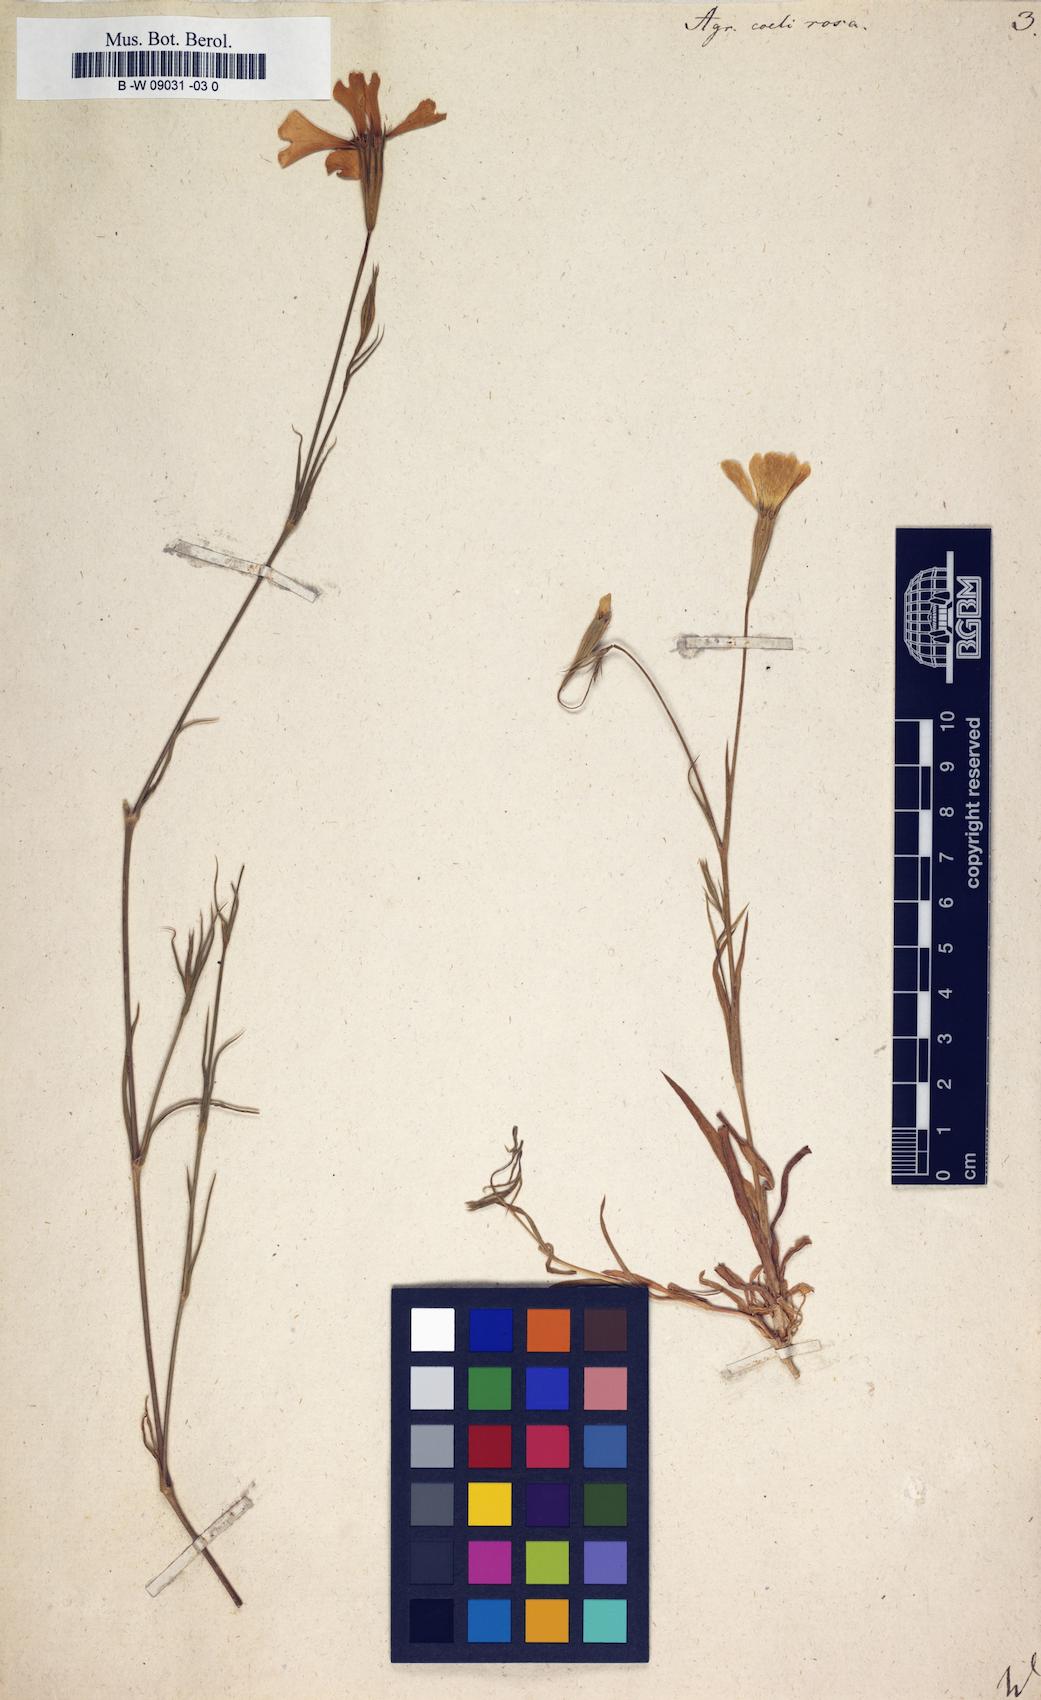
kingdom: Plantae
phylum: Tracheophyta
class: Magnoliopsida
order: Caryophyllales
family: Caryophyllaceae
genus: Eudianthe
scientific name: Eudianthe coeli-rosa
